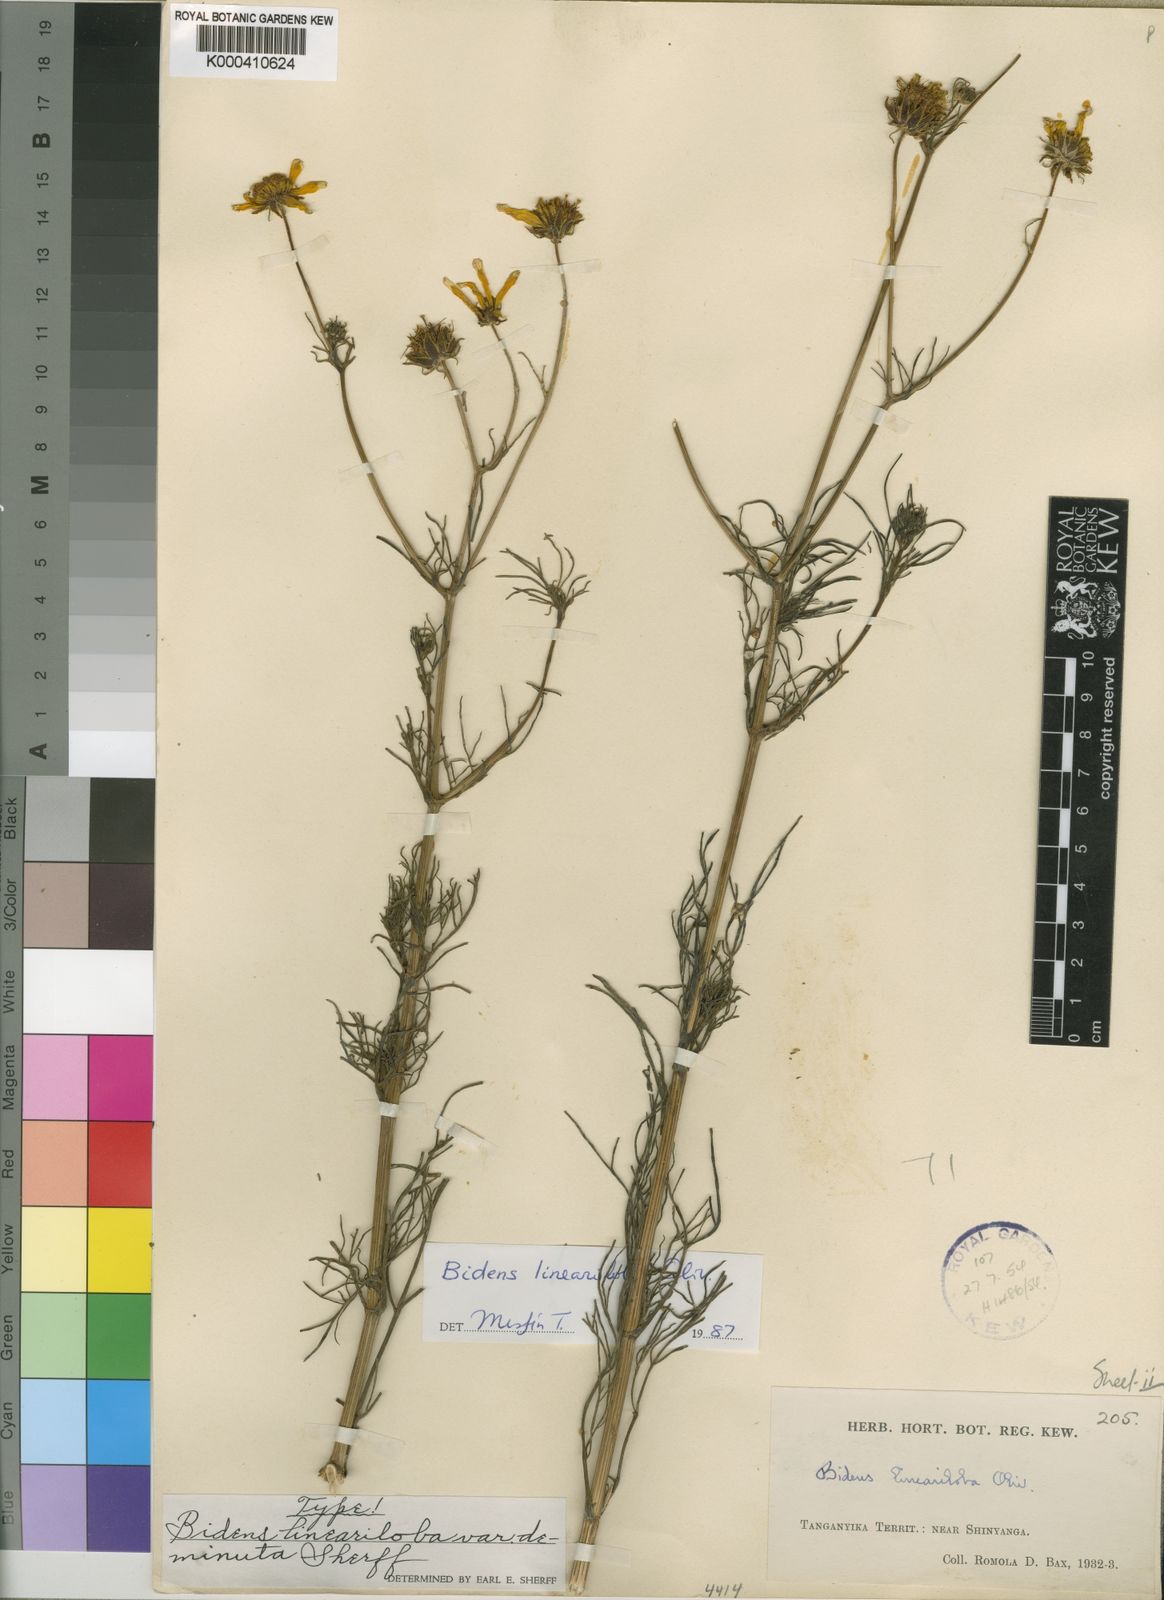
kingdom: Plantae
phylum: Tracheophyta
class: Magnoliopsida
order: Asterales
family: Asteraceae
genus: Bidens
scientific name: Bidens lineariloba
